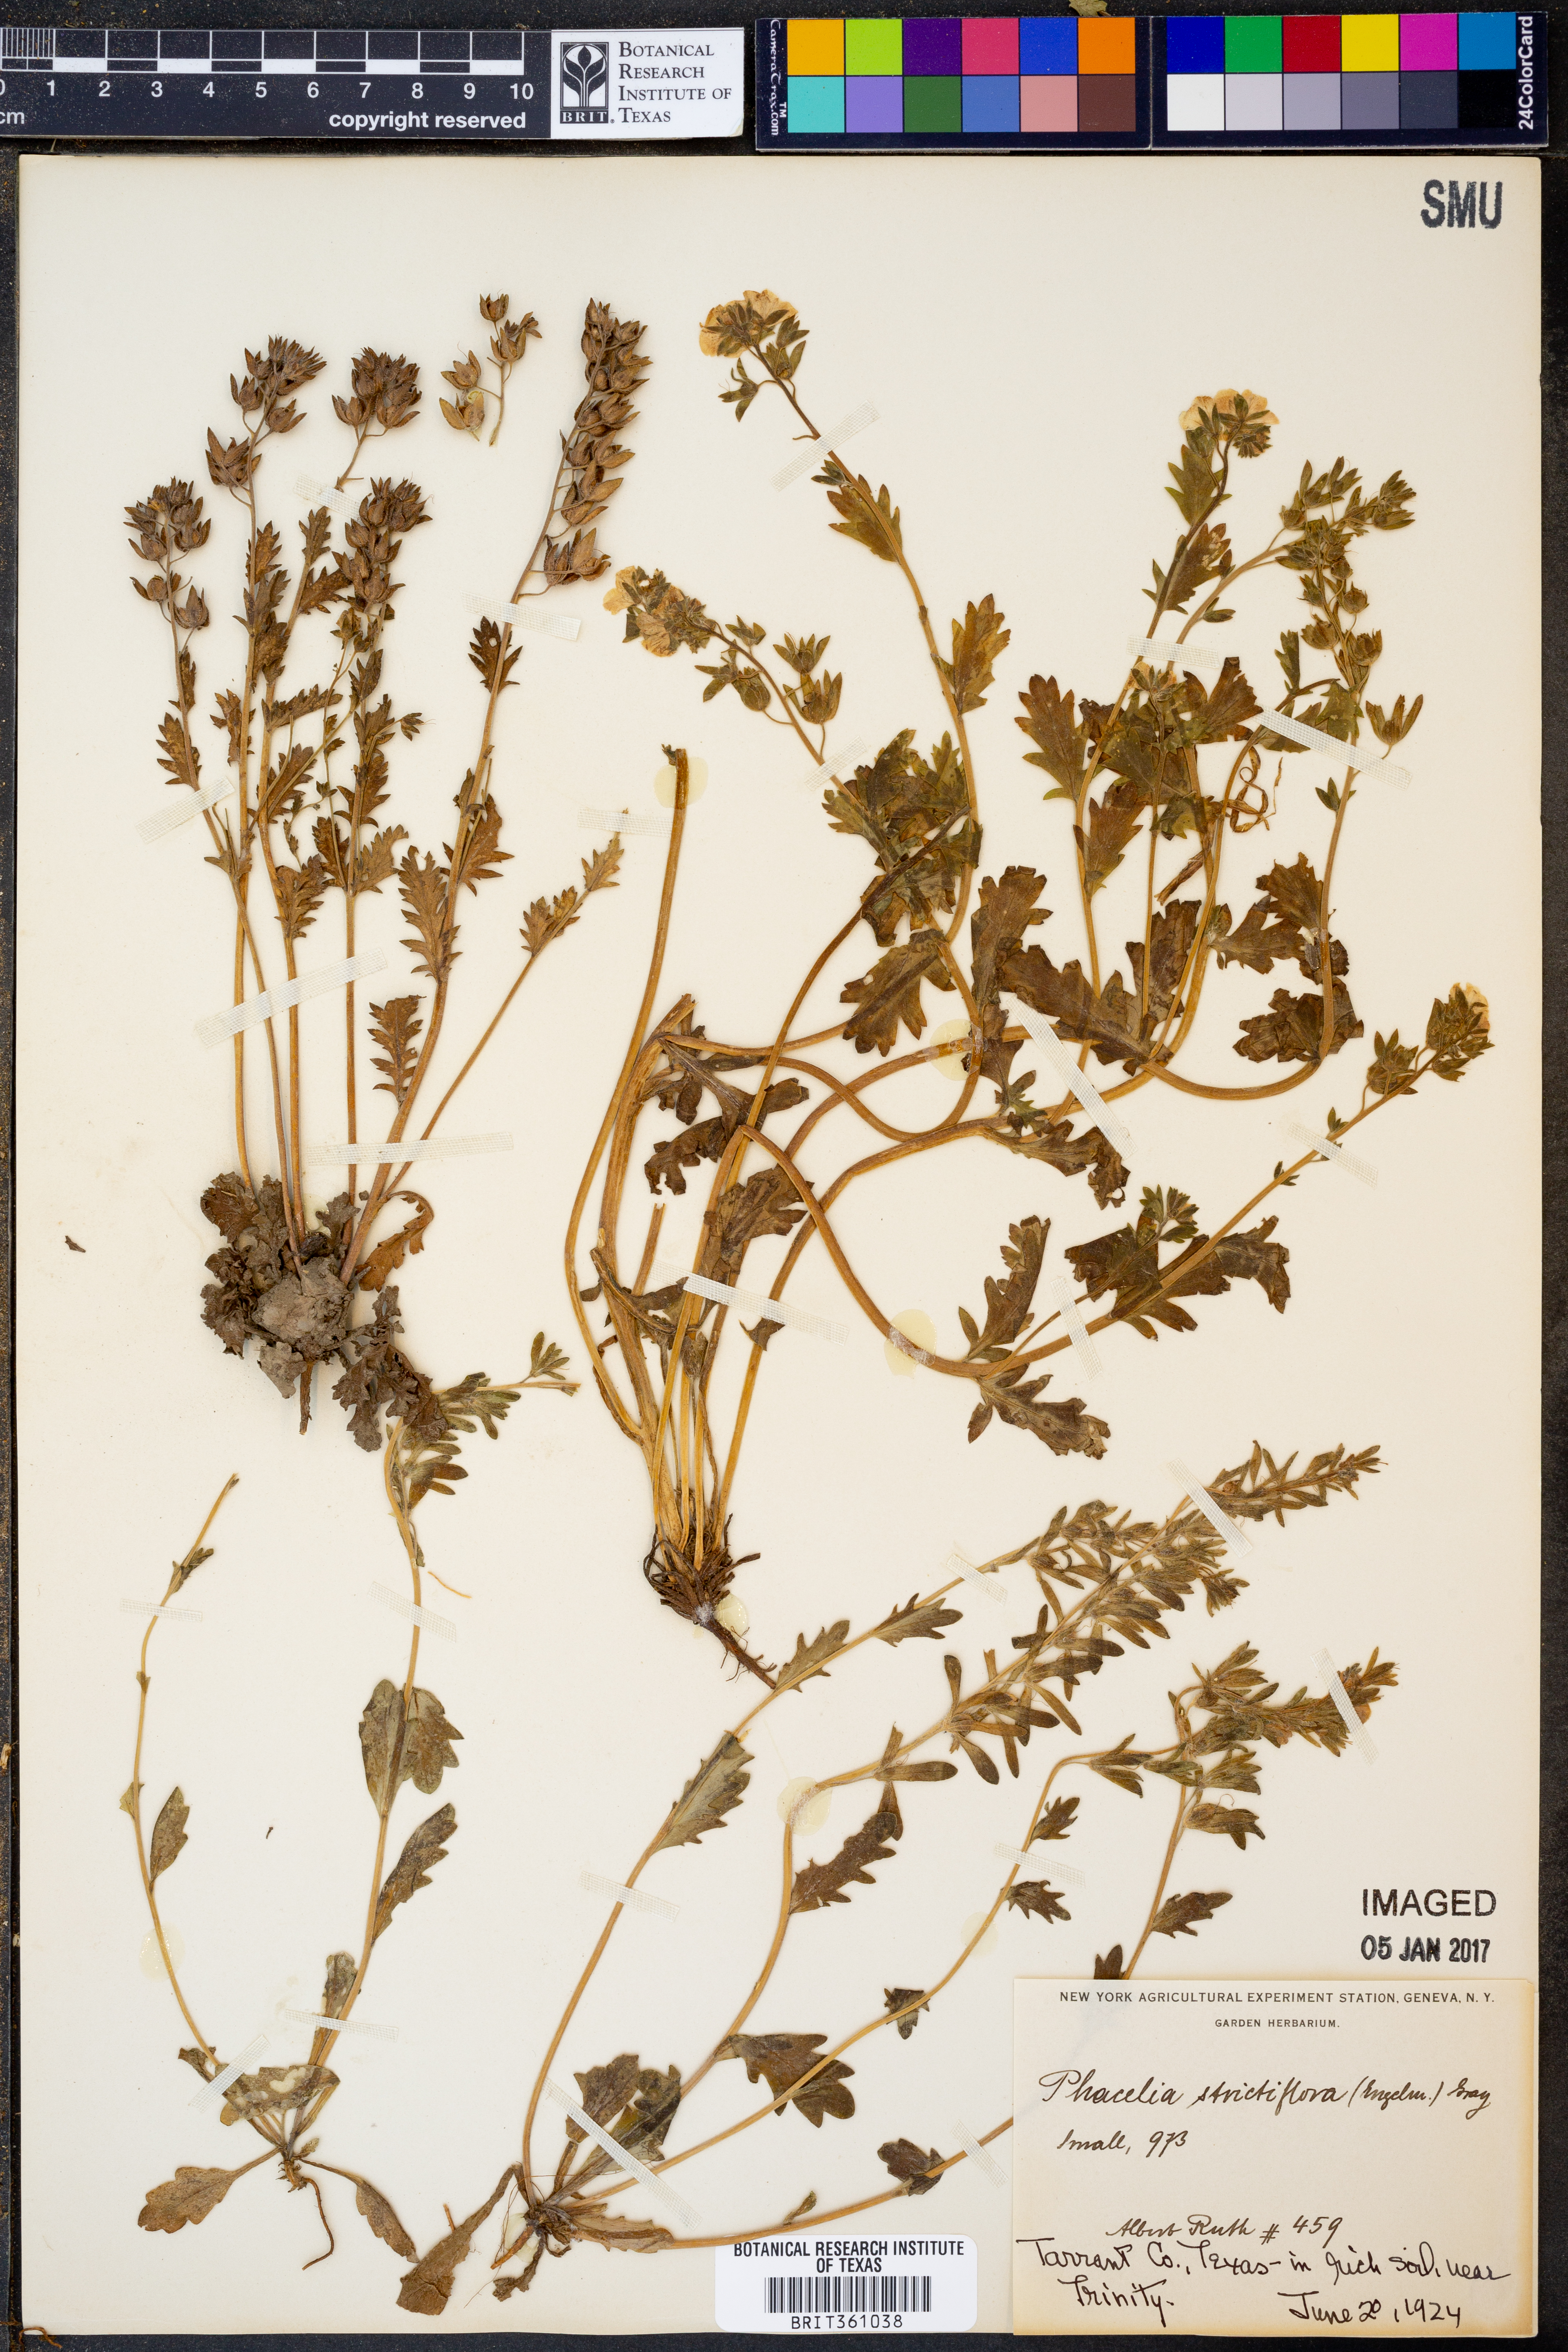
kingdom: Plantae
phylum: Tracheophyta
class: Magnoliopsida
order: Boraginales
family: Hydrophyllaceae
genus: Phacelia
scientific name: Phacelia strictiflora
